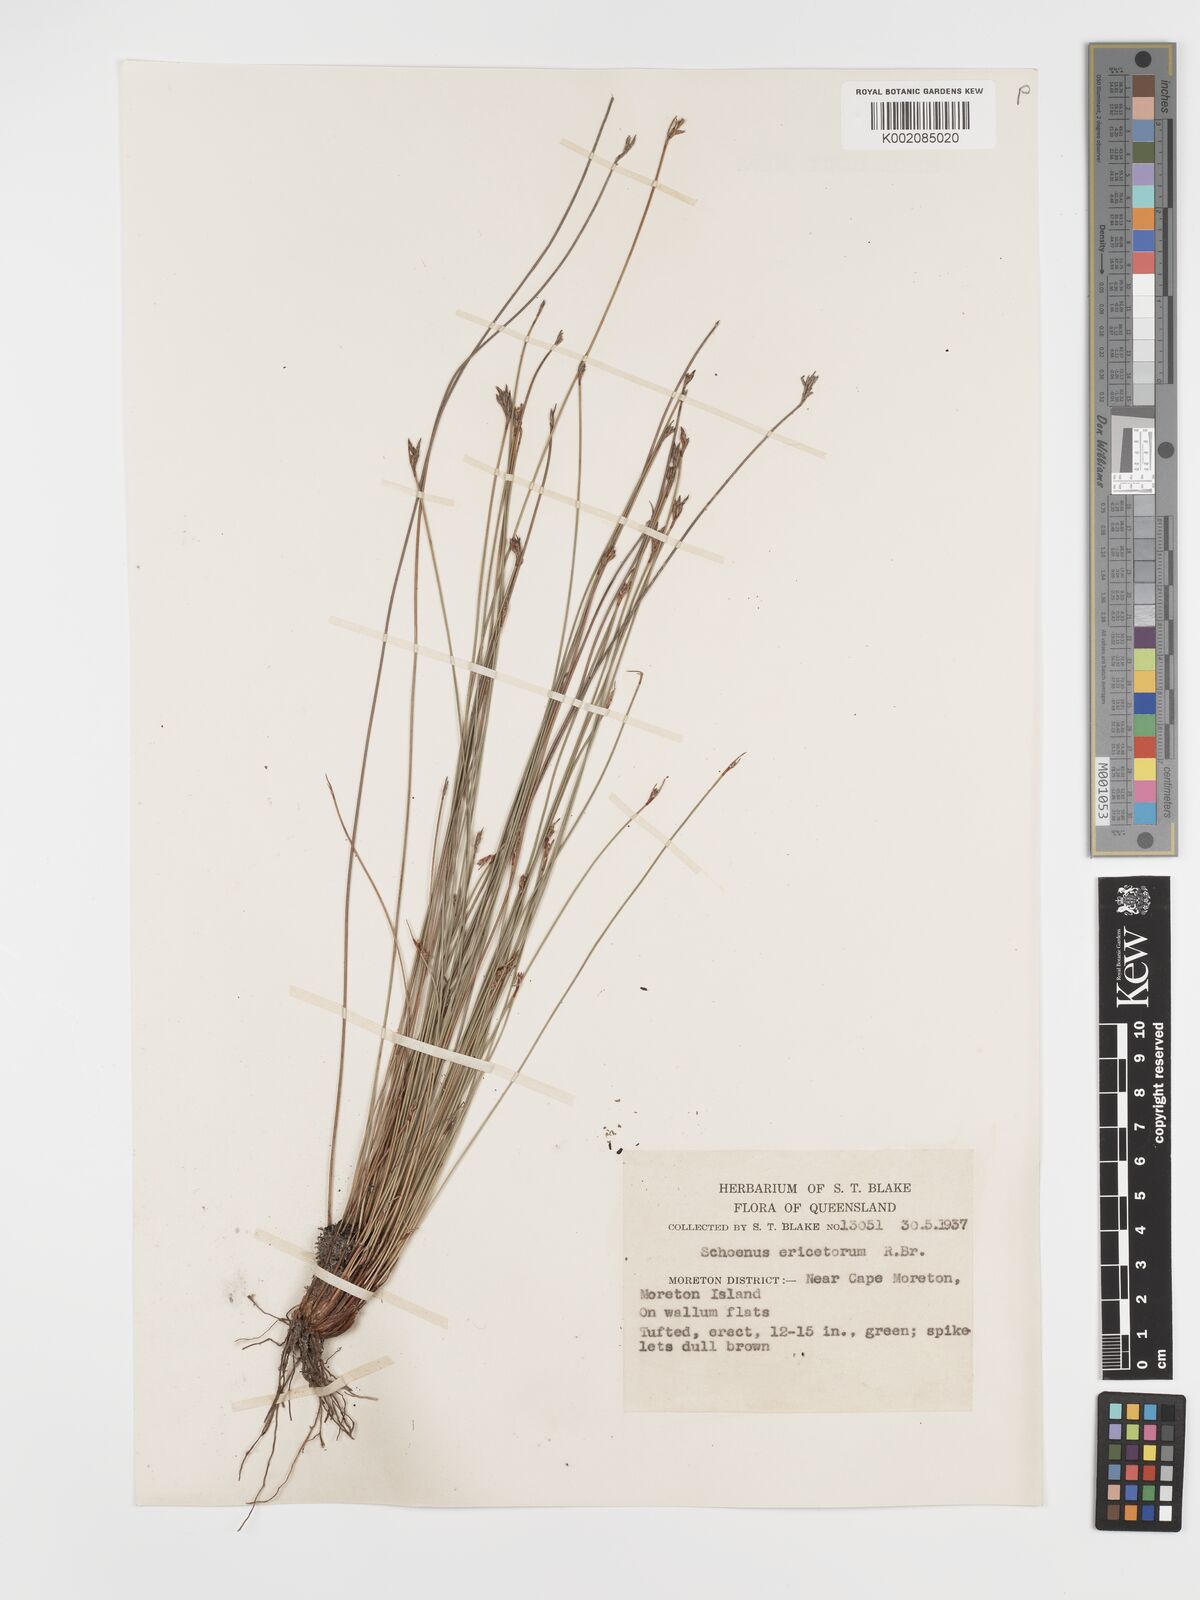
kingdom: Plantae
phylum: Tracheophyta
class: Liliopsida
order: Poales
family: Cyperaceae
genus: Schoenus
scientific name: Schoenus ericetorum
